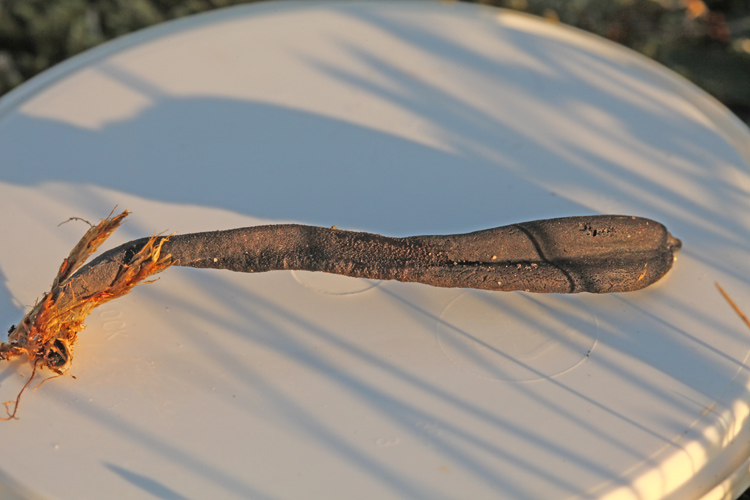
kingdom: Fungi
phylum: Ascomycota
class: Geoglossomycetes
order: Geoglossales
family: Geoglossaceae
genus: Geoglossum
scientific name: Geoglossum fallax
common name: småskællet jordtunge
